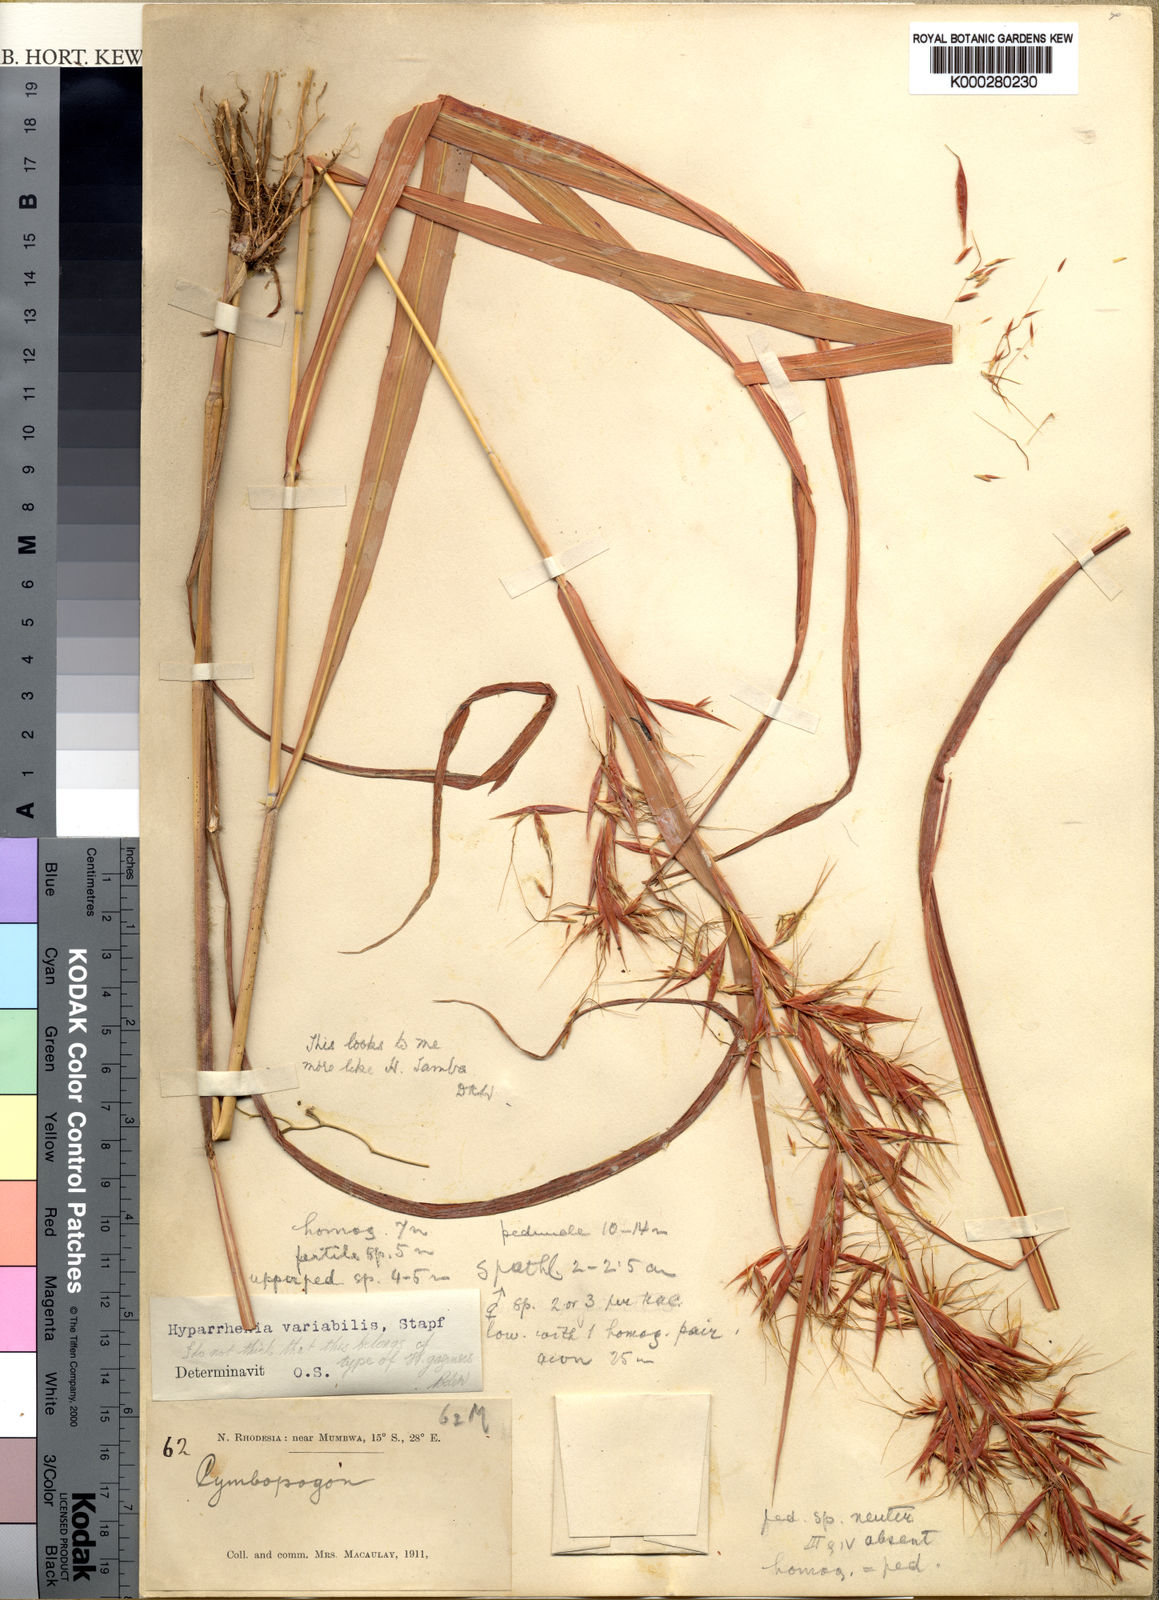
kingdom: Plantae
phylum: Tracheophyta
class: Liliopsida
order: Poales
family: Poaceae
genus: Hyparrhenia
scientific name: Hyparrhenia variabilis
